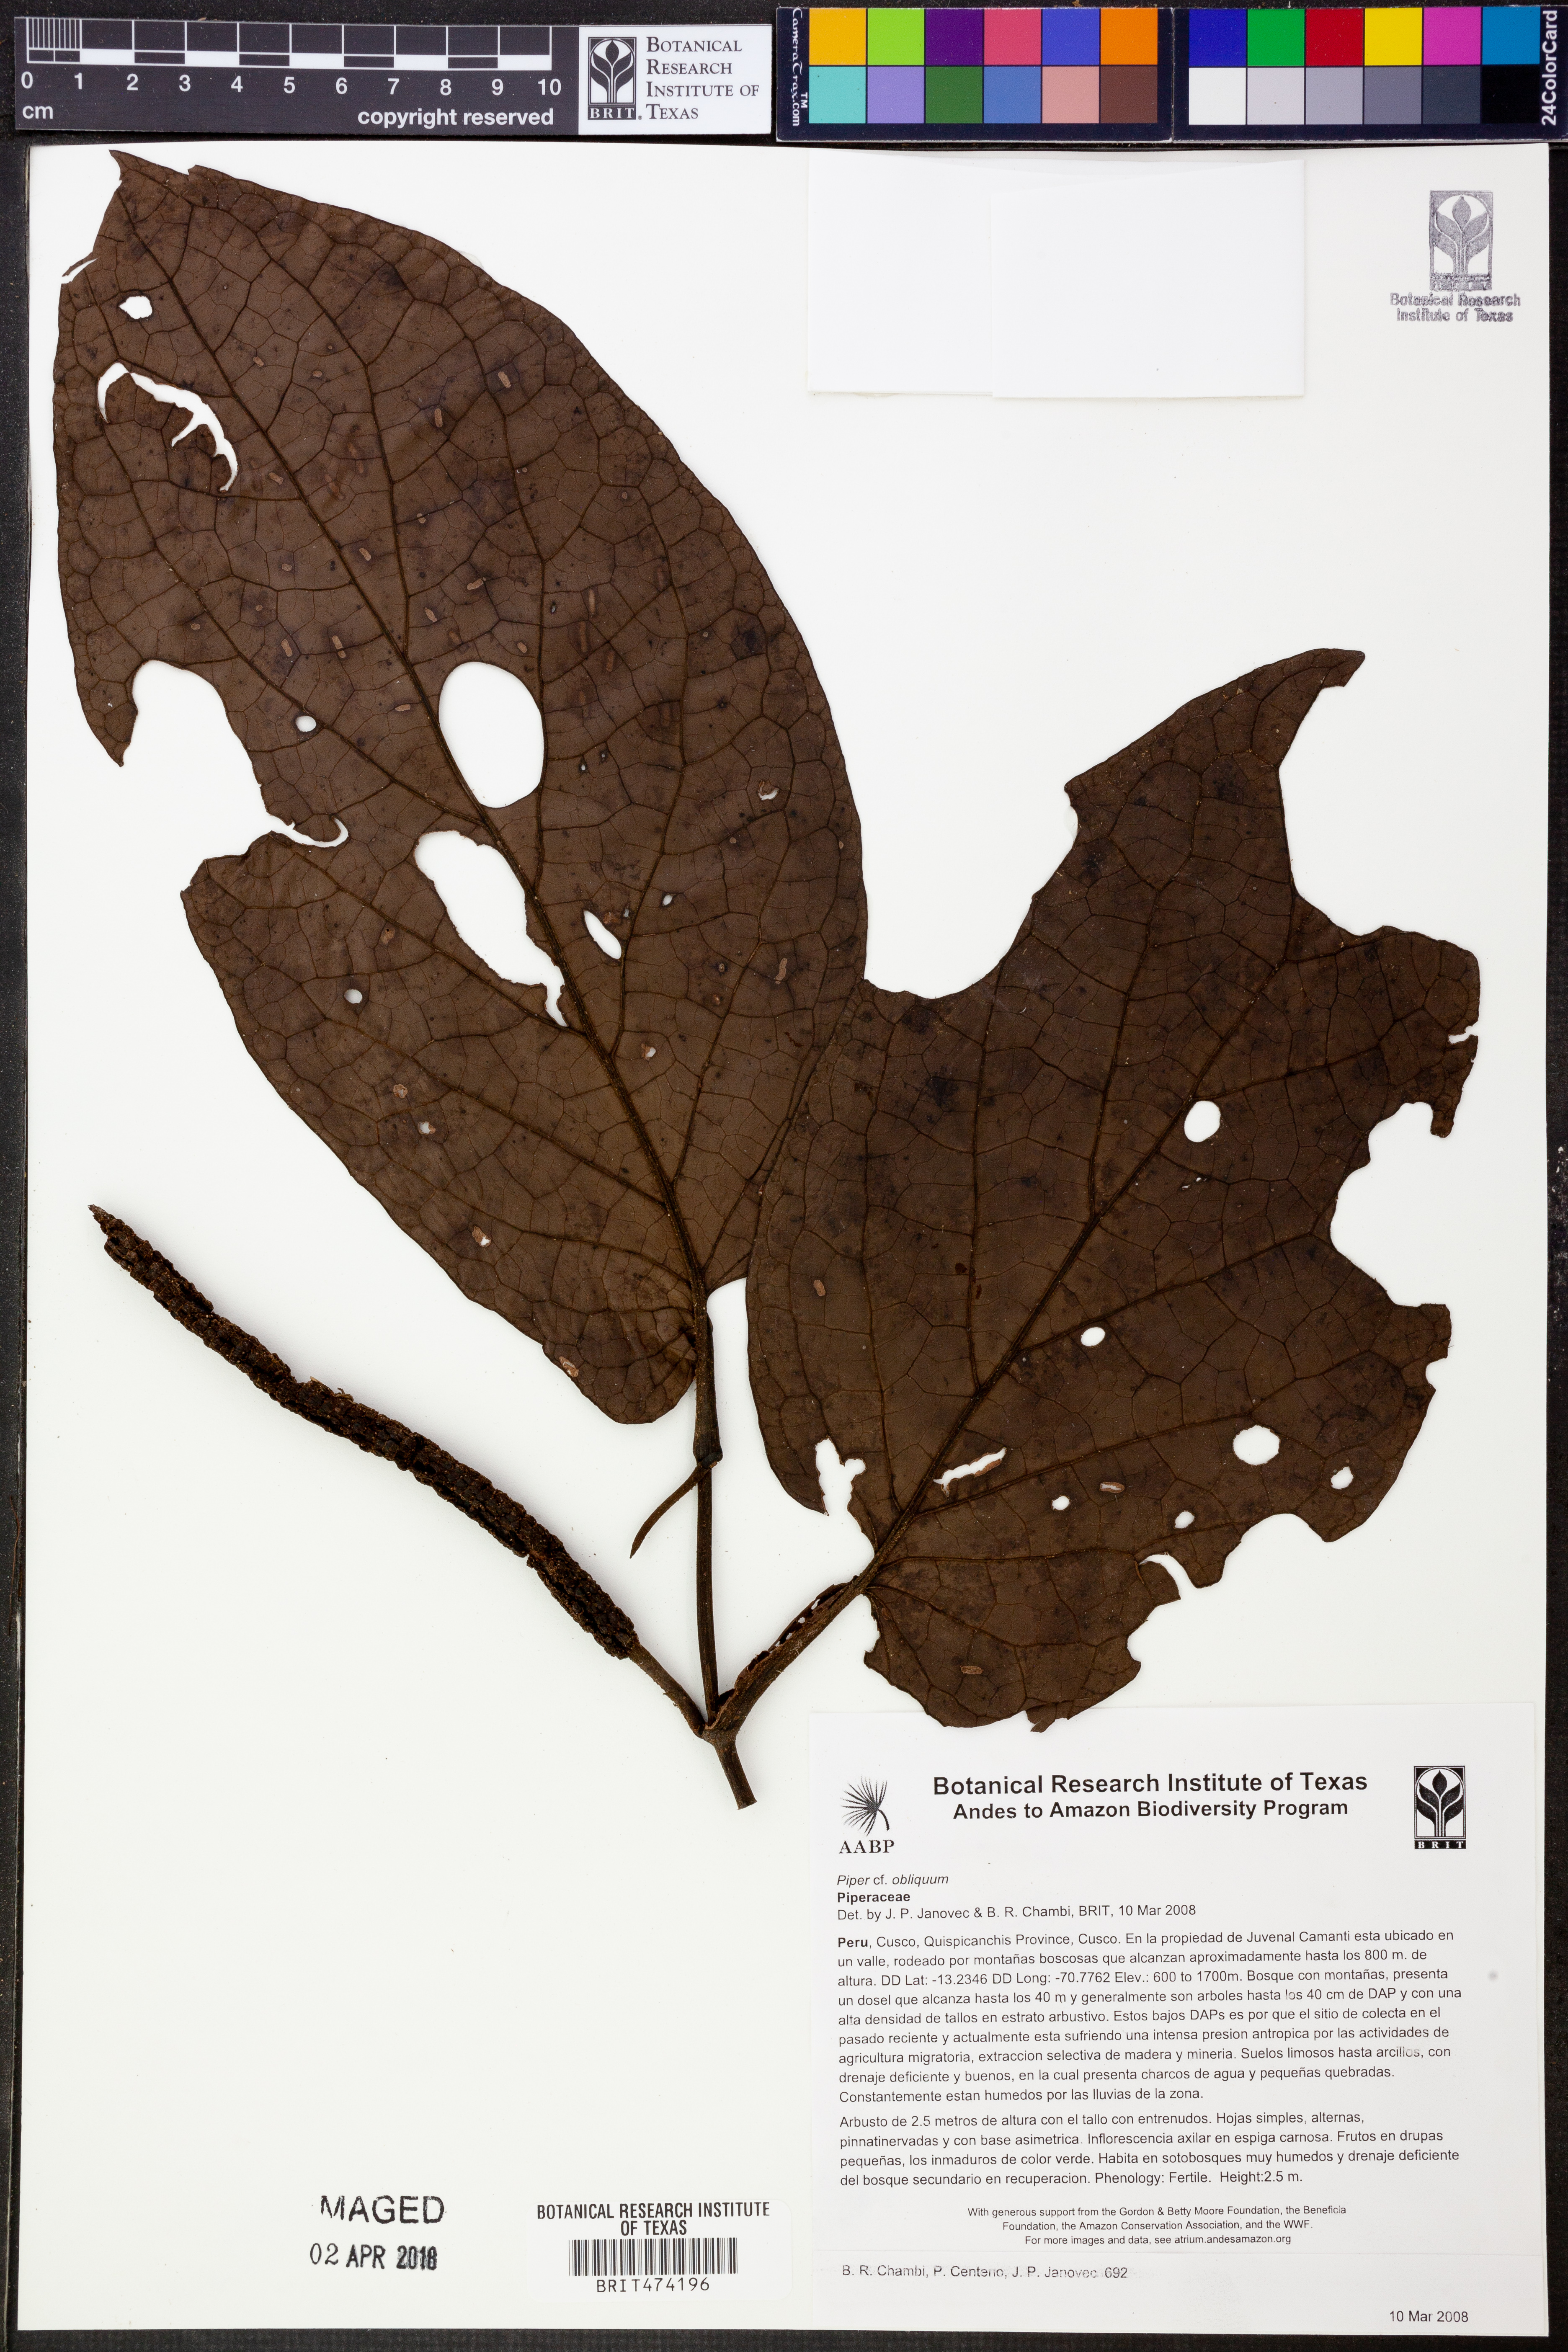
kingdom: Plantae
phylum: Tracheophyta
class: Magnoliopsida
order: Piperales
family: Piperaceae
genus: Piper
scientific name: Piper obliquum
